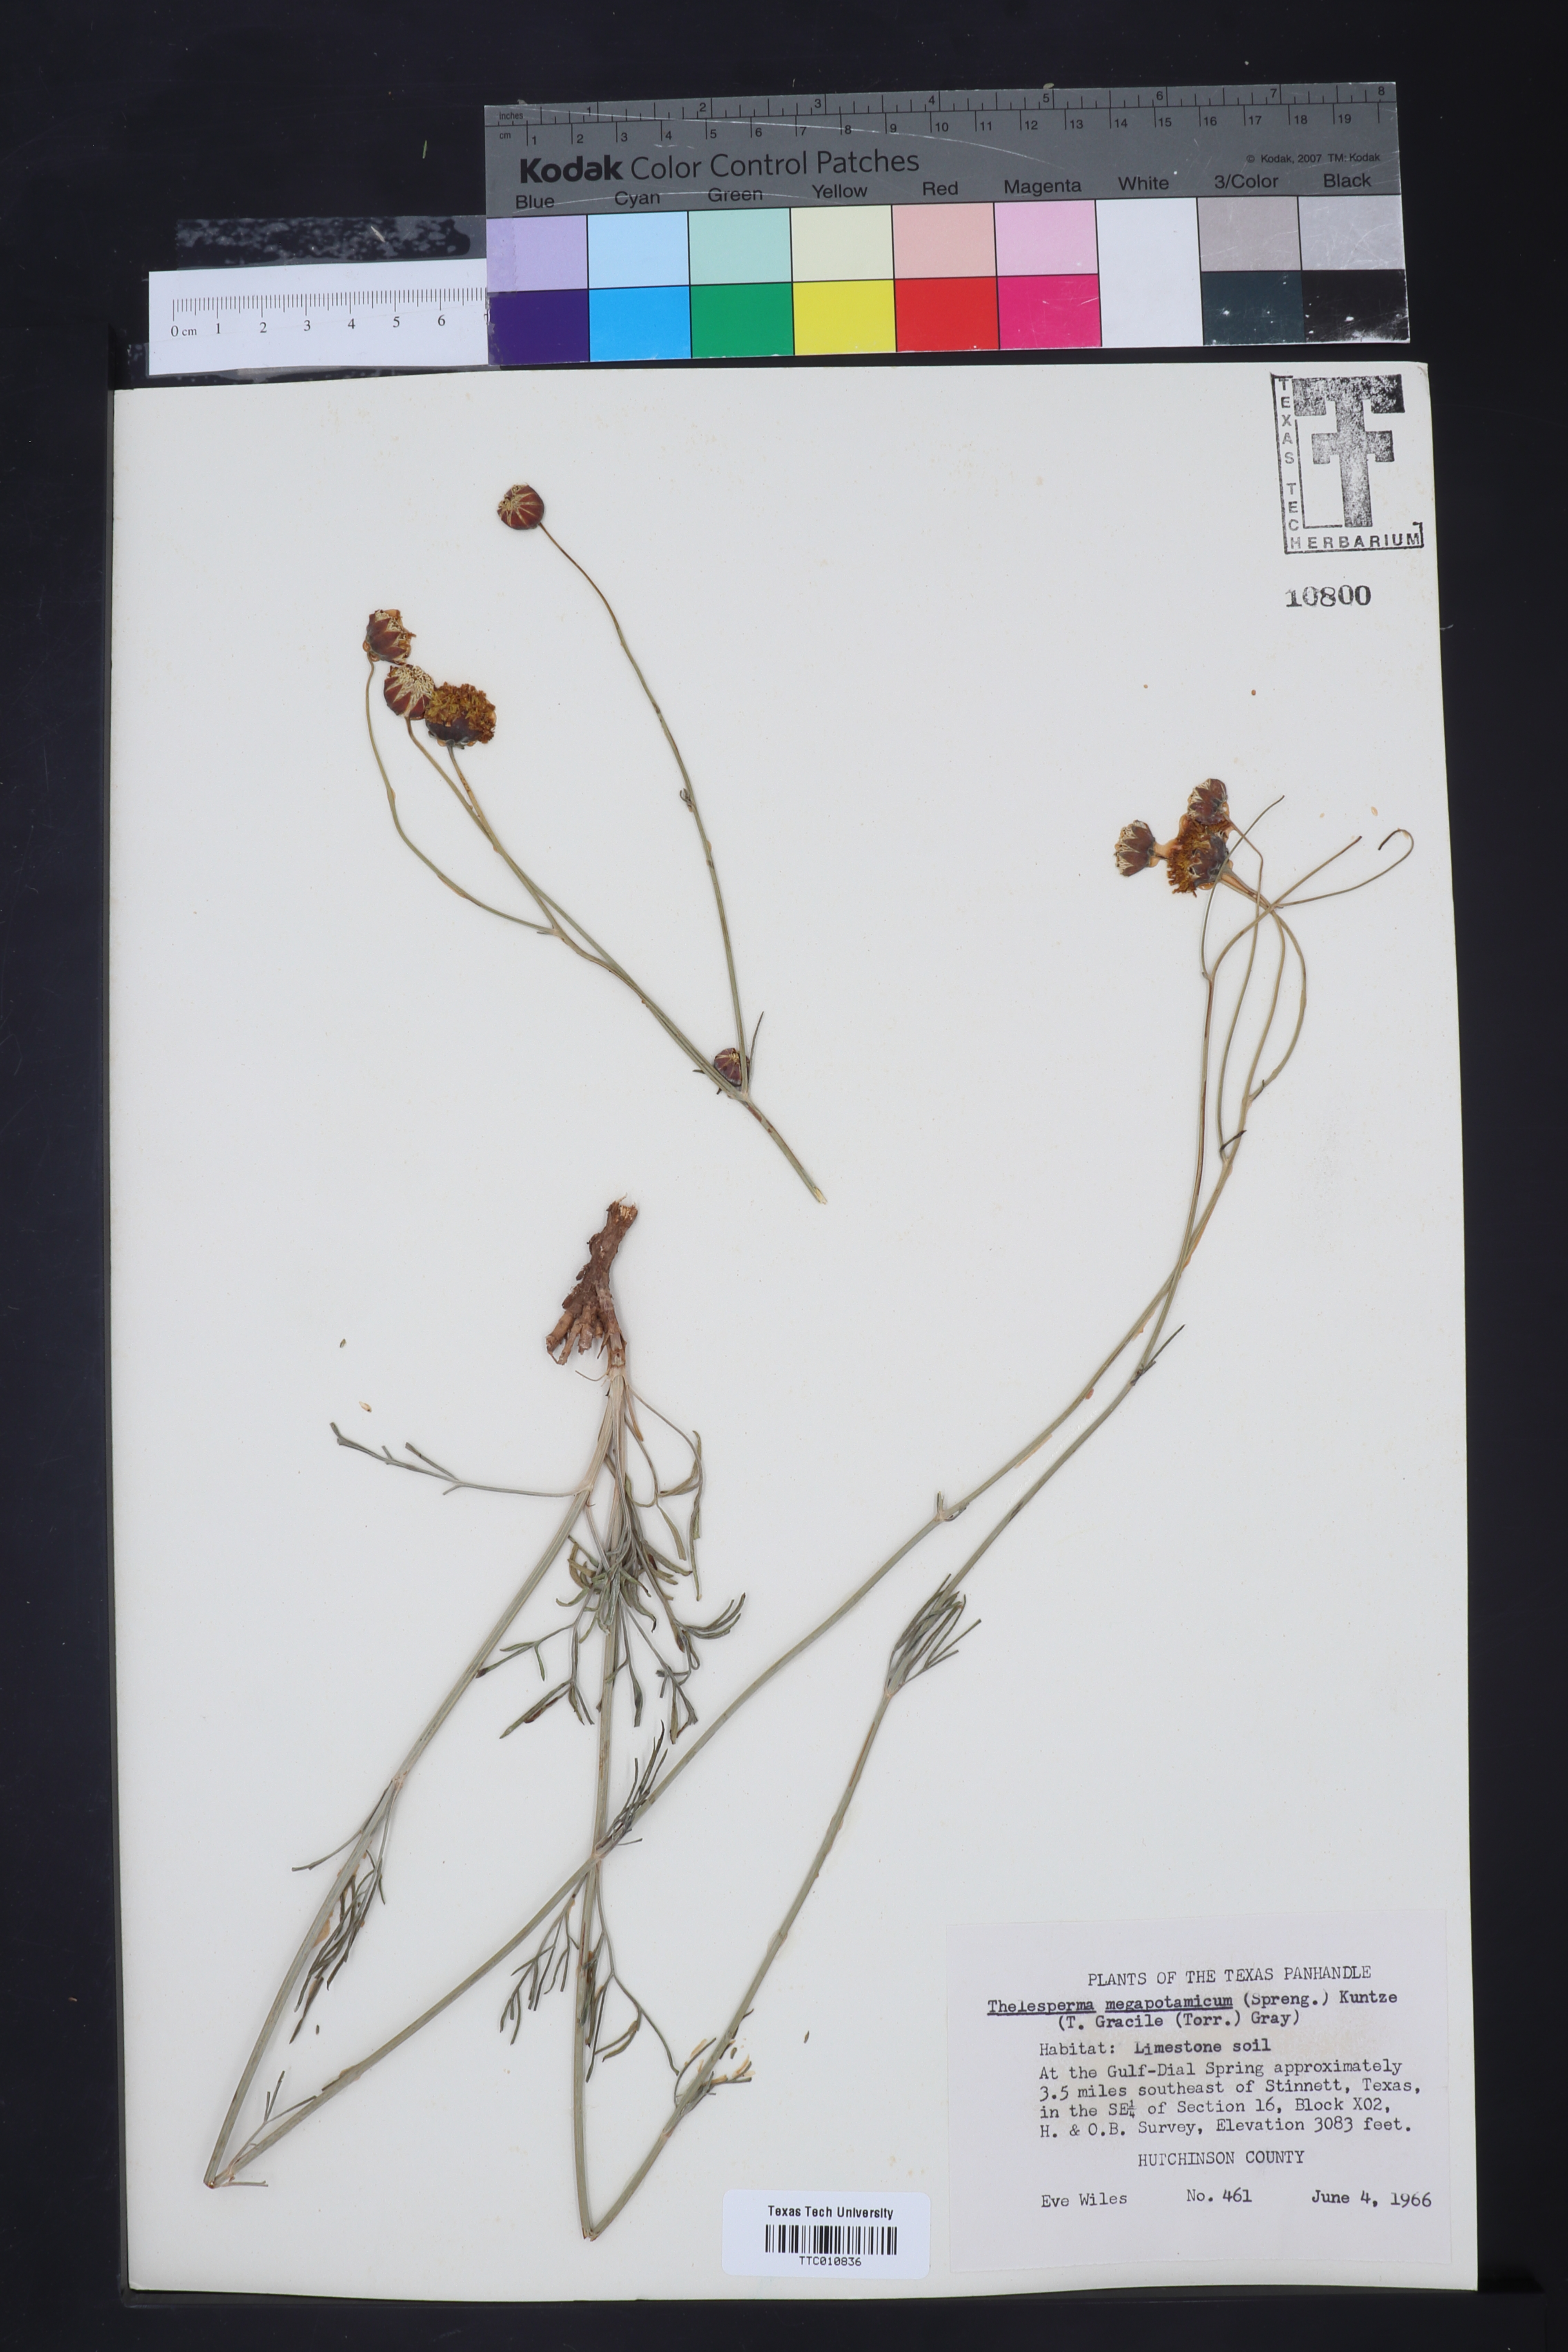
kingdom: Plantae
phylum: Tracheophyta
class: Magnoliopsida
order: Asterales
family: Asteraceae
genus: Thelesperma
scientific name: Thelesperma megapotamicum
